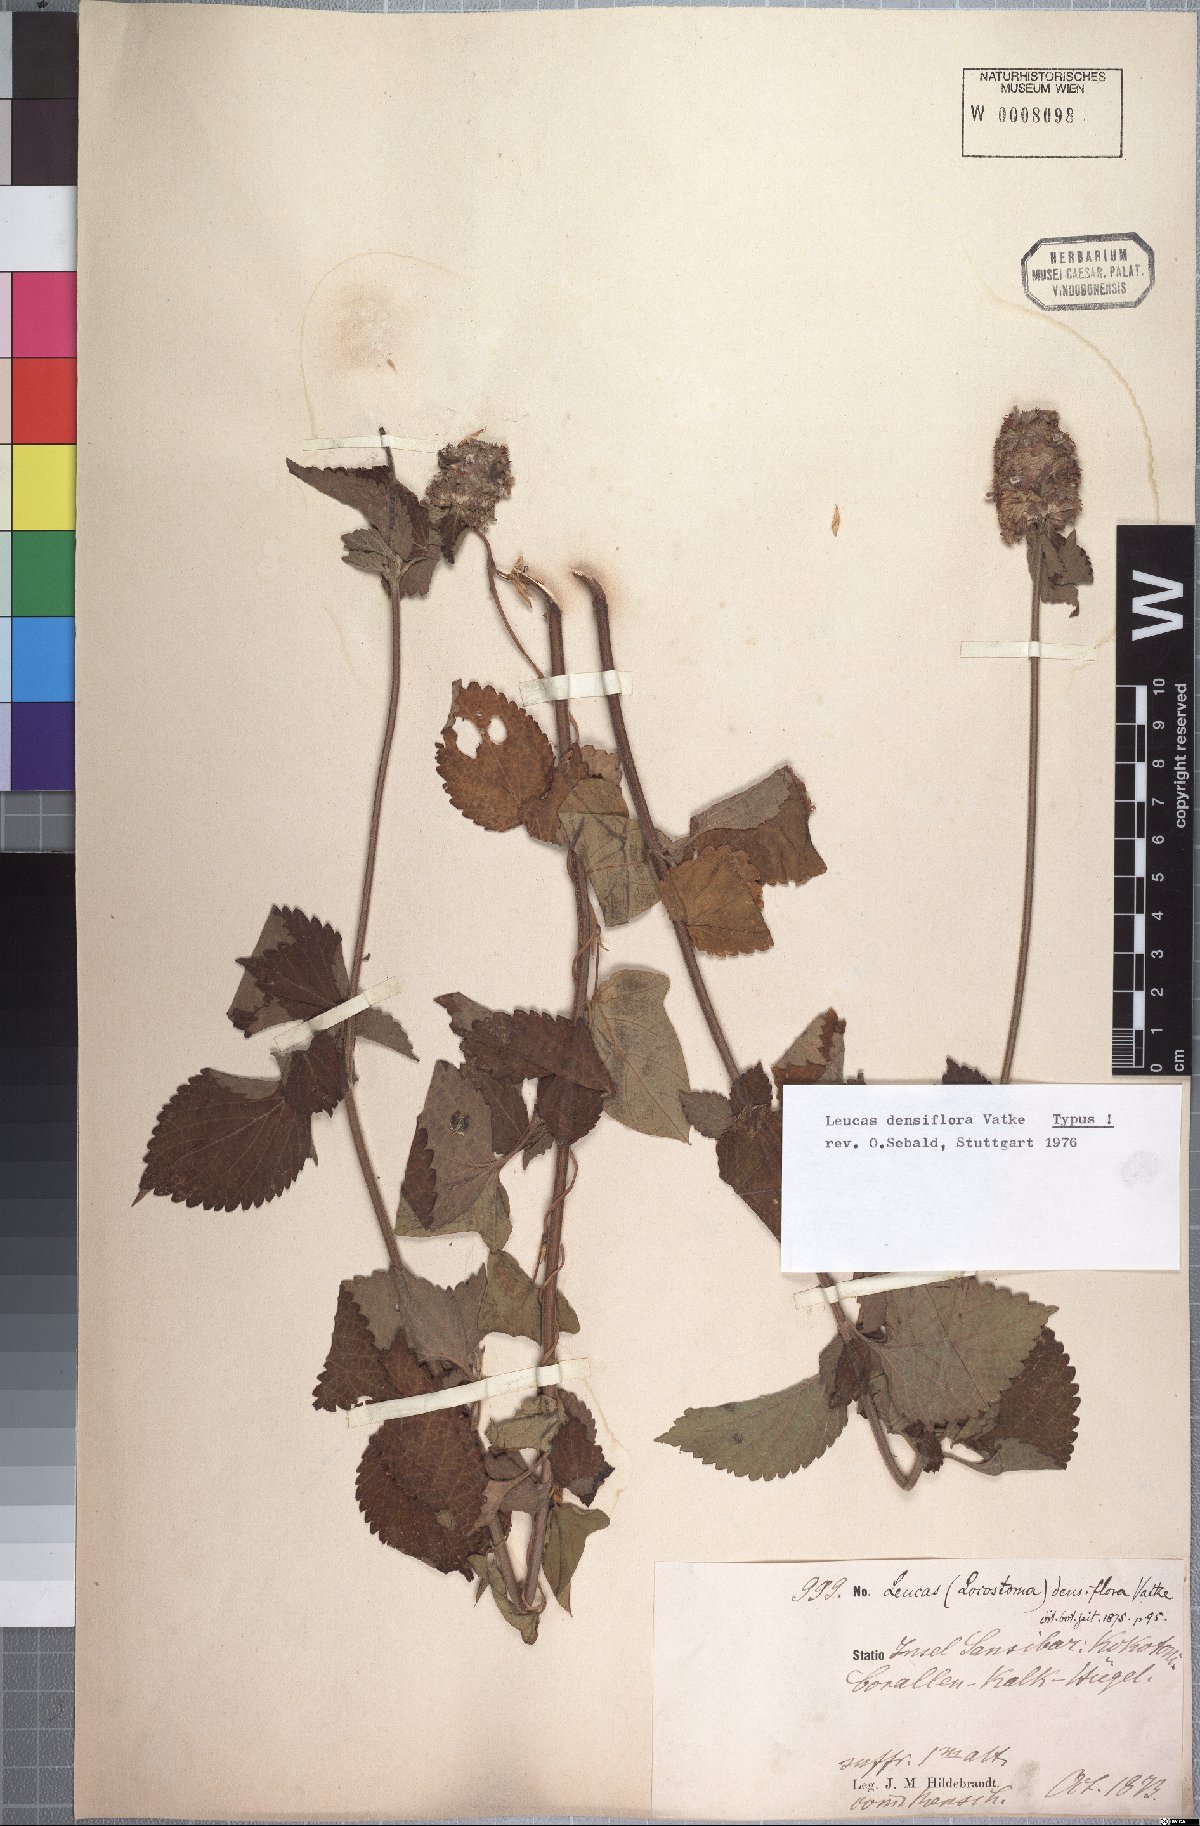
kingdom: Plantae
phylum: Tracheophyta
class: Magnoliopsida
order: Lamiales
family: Lamiaceae
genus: Leucas
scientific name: Leucas densiflora
